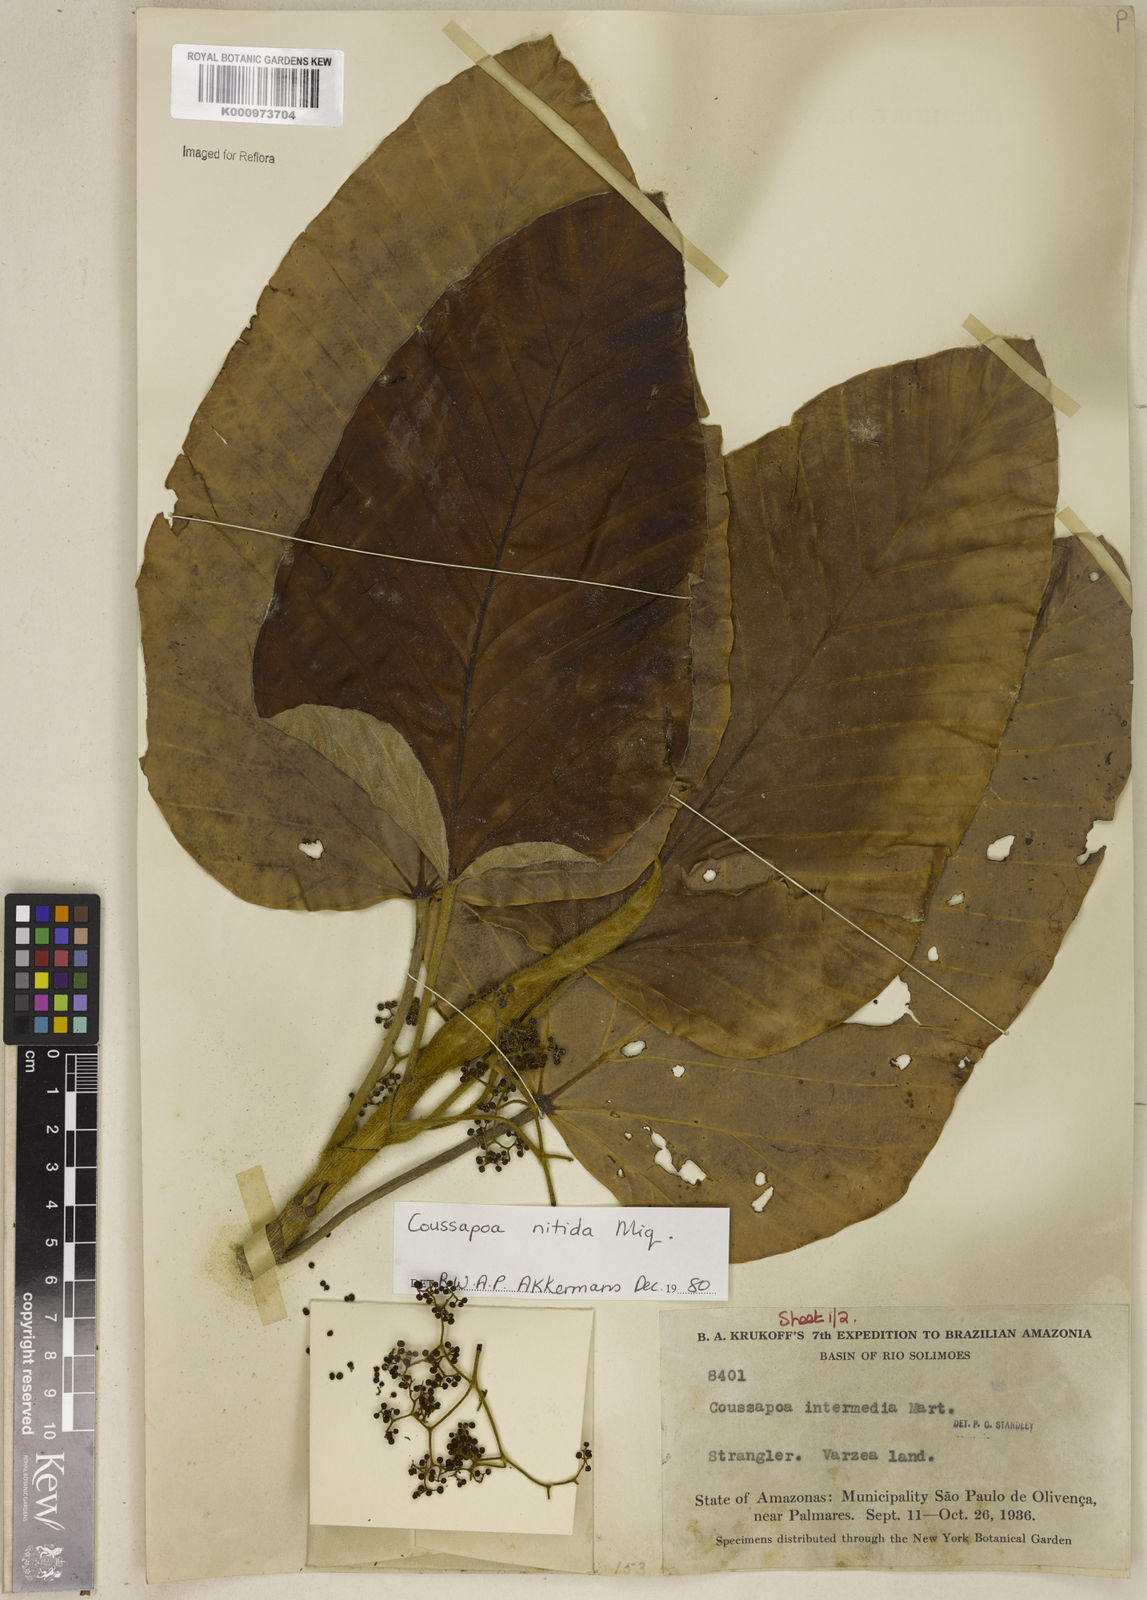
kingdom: Plantae
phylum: Tracheophyta
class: Magnoliopsida
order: Rosales
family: Urticaceae
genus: Coussapoa
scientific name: Coussapoa nitida
